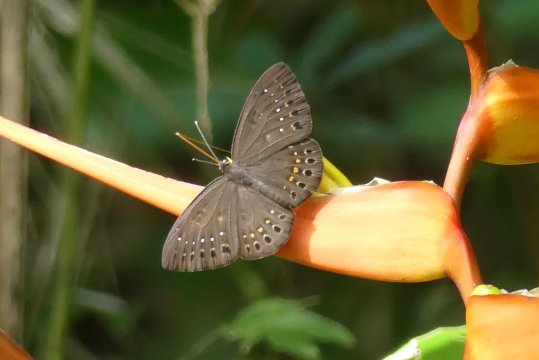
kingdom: Animalia
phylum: Cnidaria
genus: Eurybia
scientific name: Eurybia elvina
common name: Blind Eurybia
